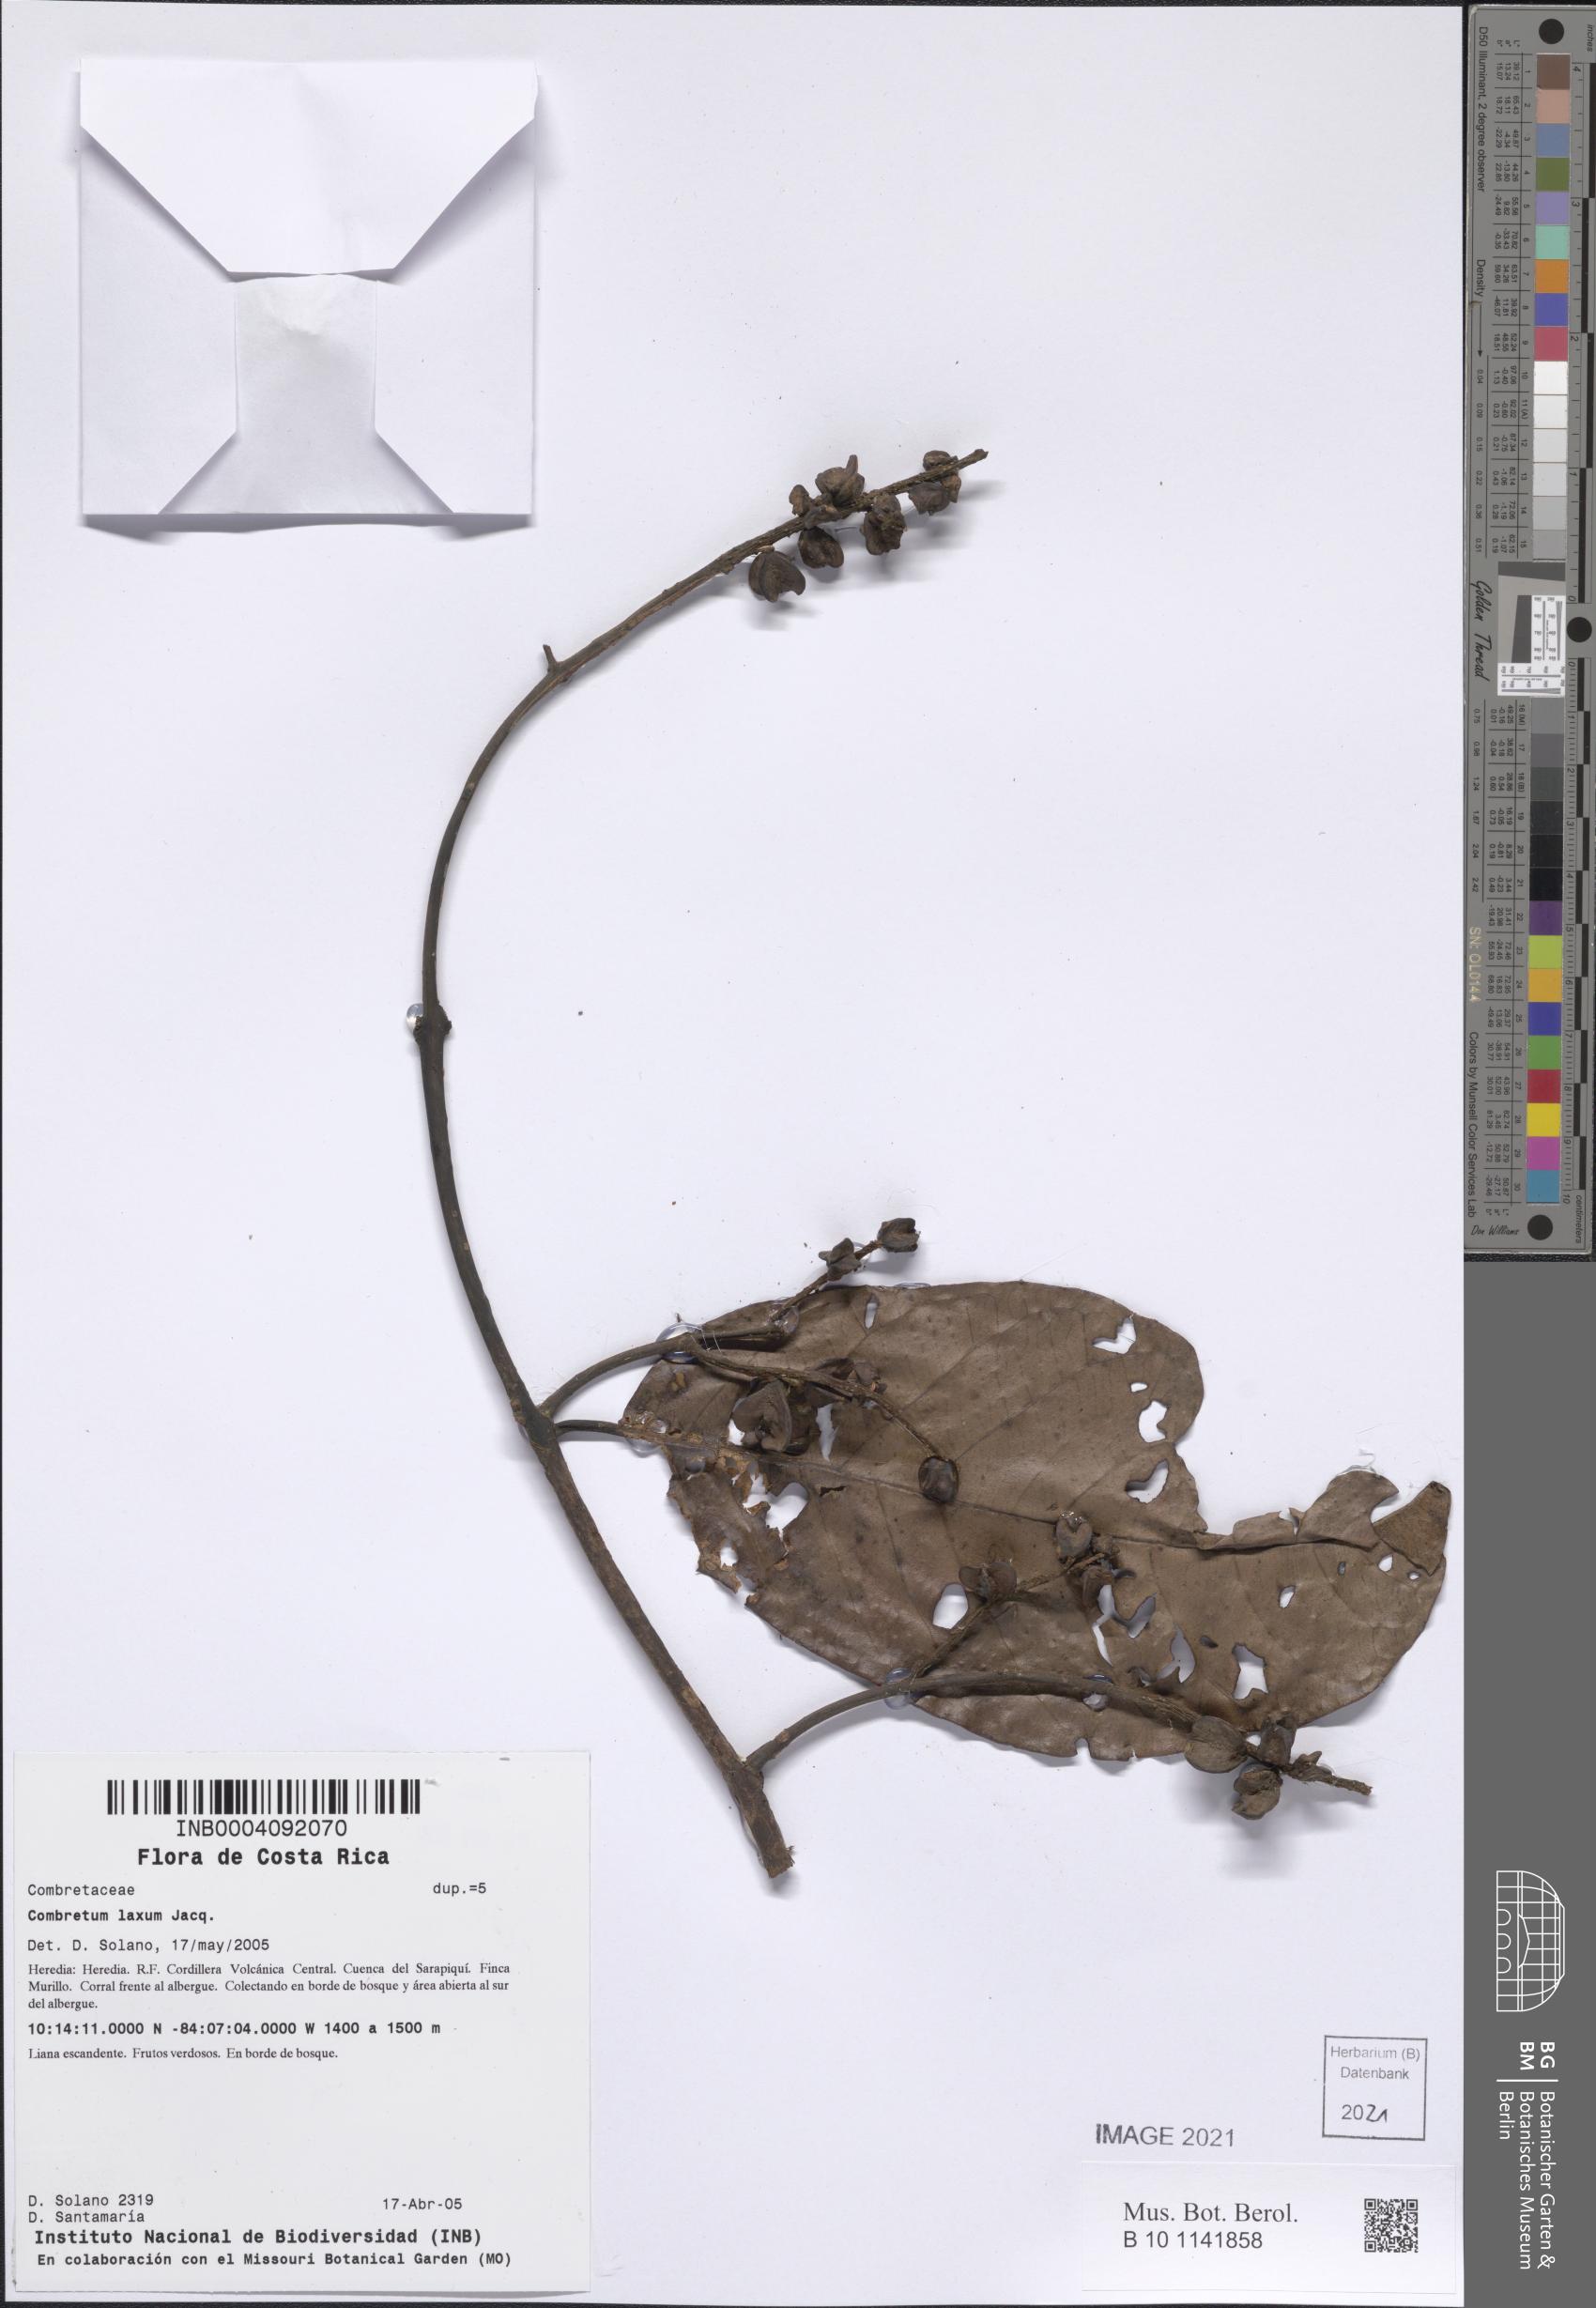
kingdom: Plantae
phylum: Tracheophyta
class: Magnoliopsida
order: Myrtales
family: Combretaceae
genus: Combretum
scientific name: Combretum laxum
